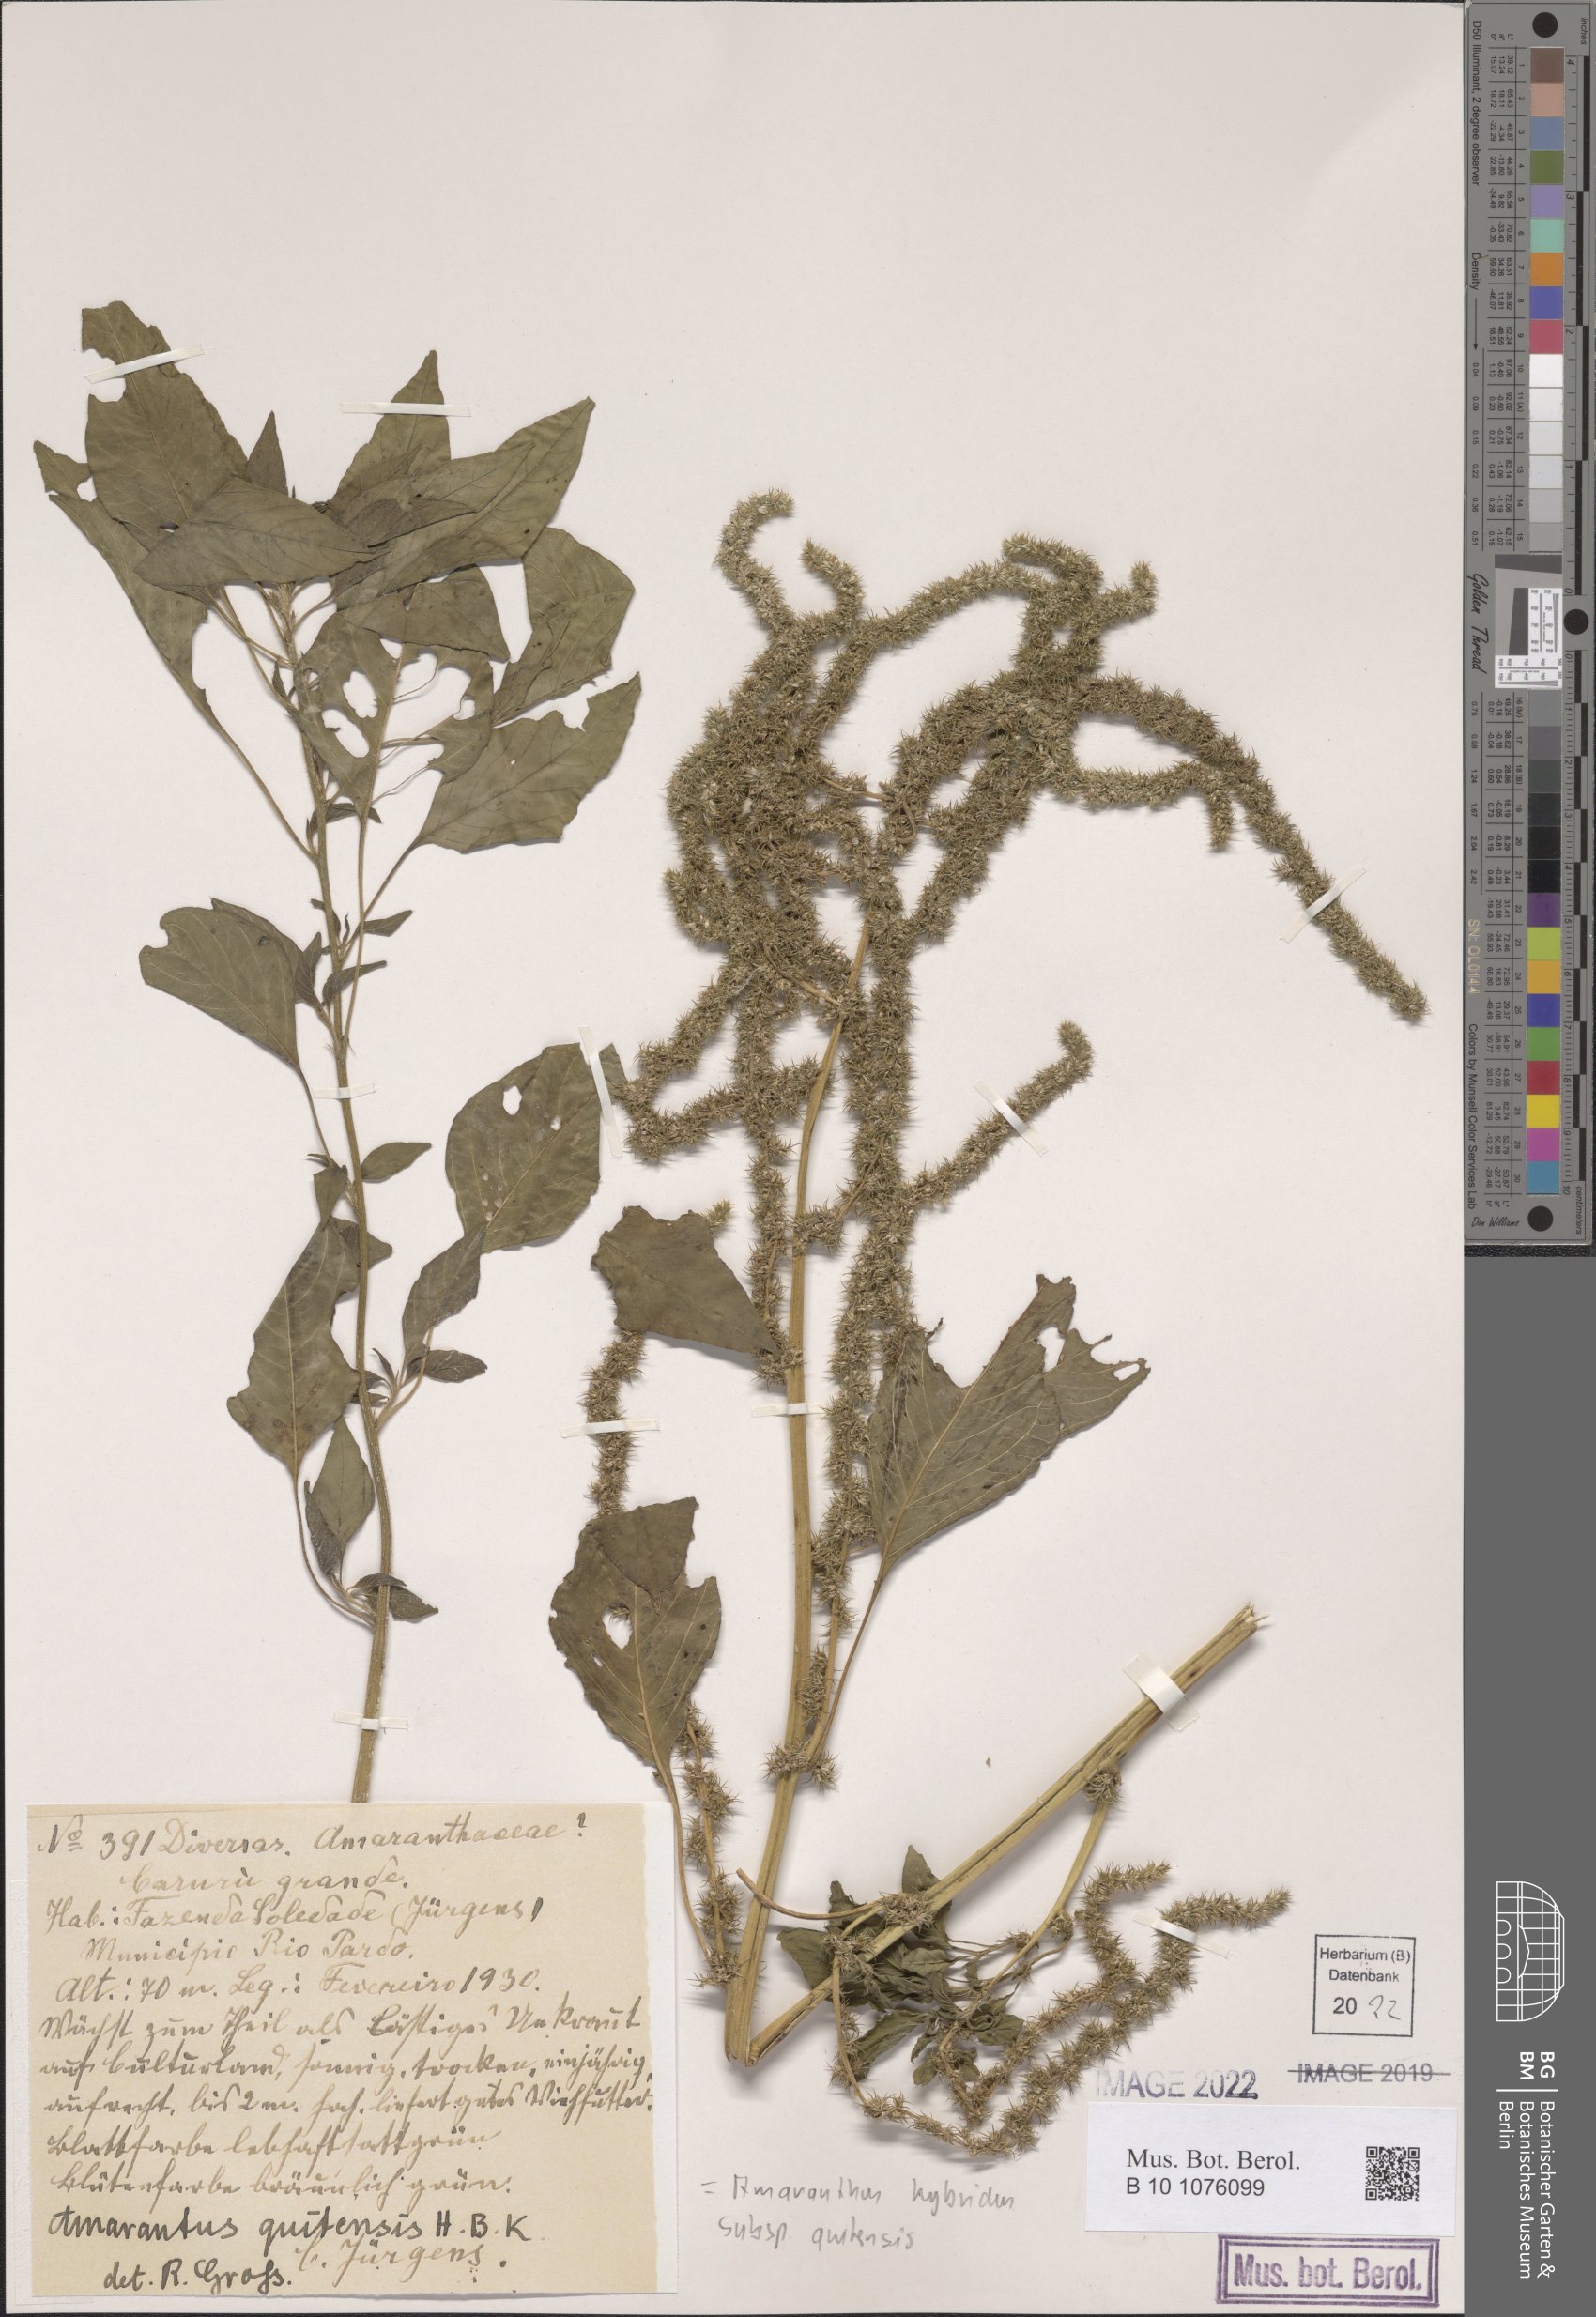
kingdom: Plantae
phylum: Tracheophyta
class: Magnoliopsida
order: Caryophyllales
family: Amaranthaceae
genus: Amaranthus
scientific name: Amaranthus quitensis
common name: Mucronate amaranth
